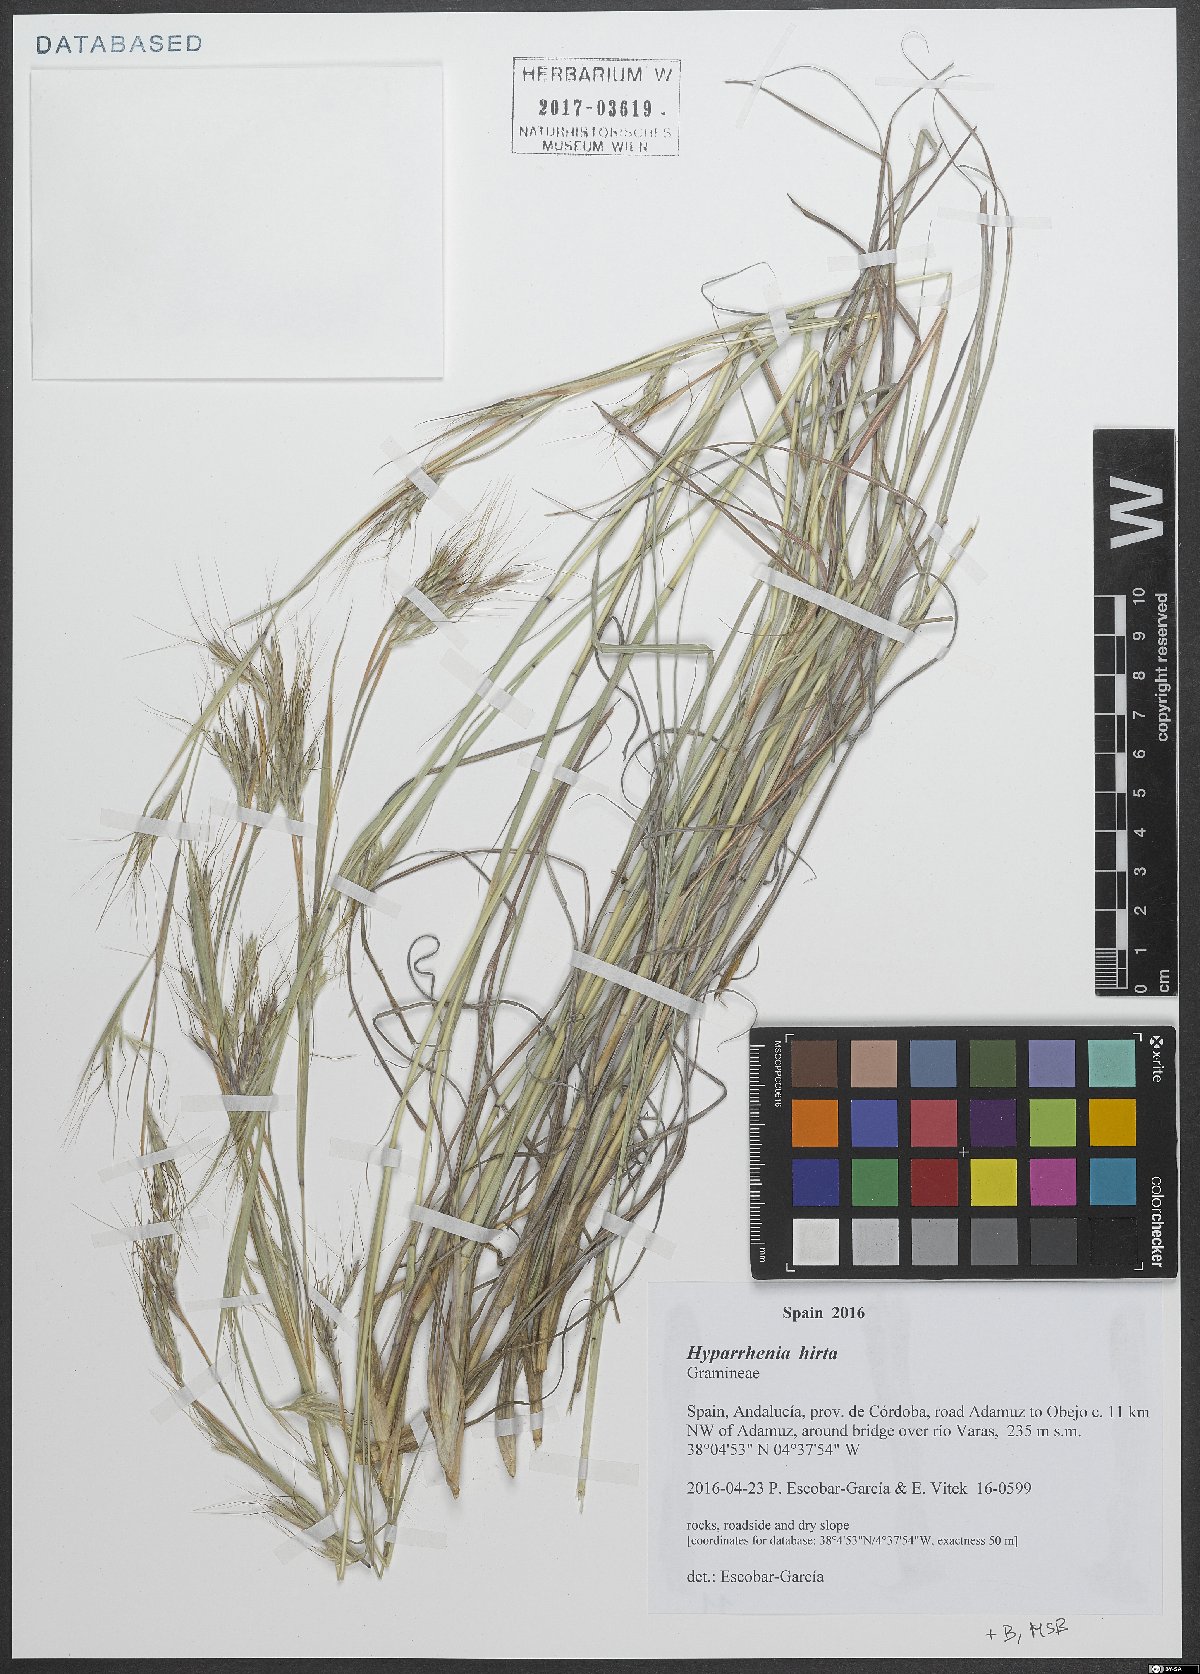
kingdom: Plantae
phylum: Tracheophyta
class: Liliopsida
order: Poales
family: Poaceae
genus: Hyparrhenia
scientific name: Hyparrhenia hirta
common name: Thatching grass
